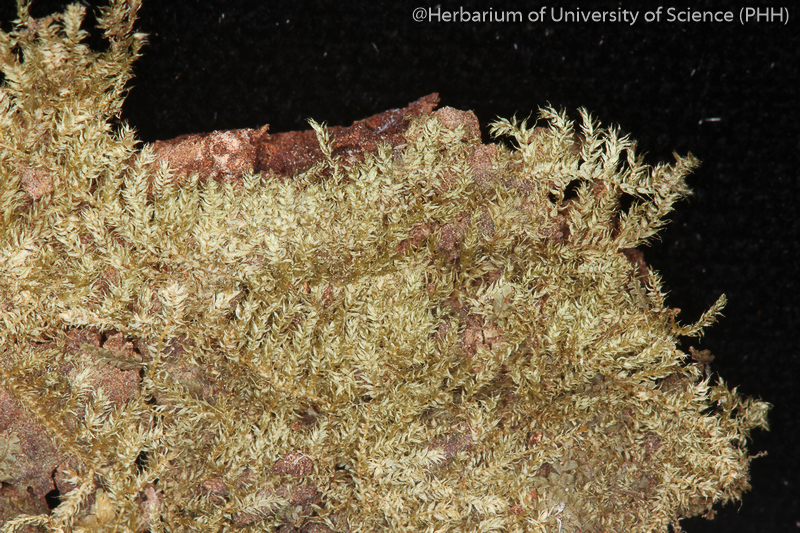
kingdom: Plantae
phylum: Bryophyta
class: Bryopsida
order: Hypnales
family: Pylaisiadelphaceae
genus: Isopterygium
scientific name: Isopterygium albescens
